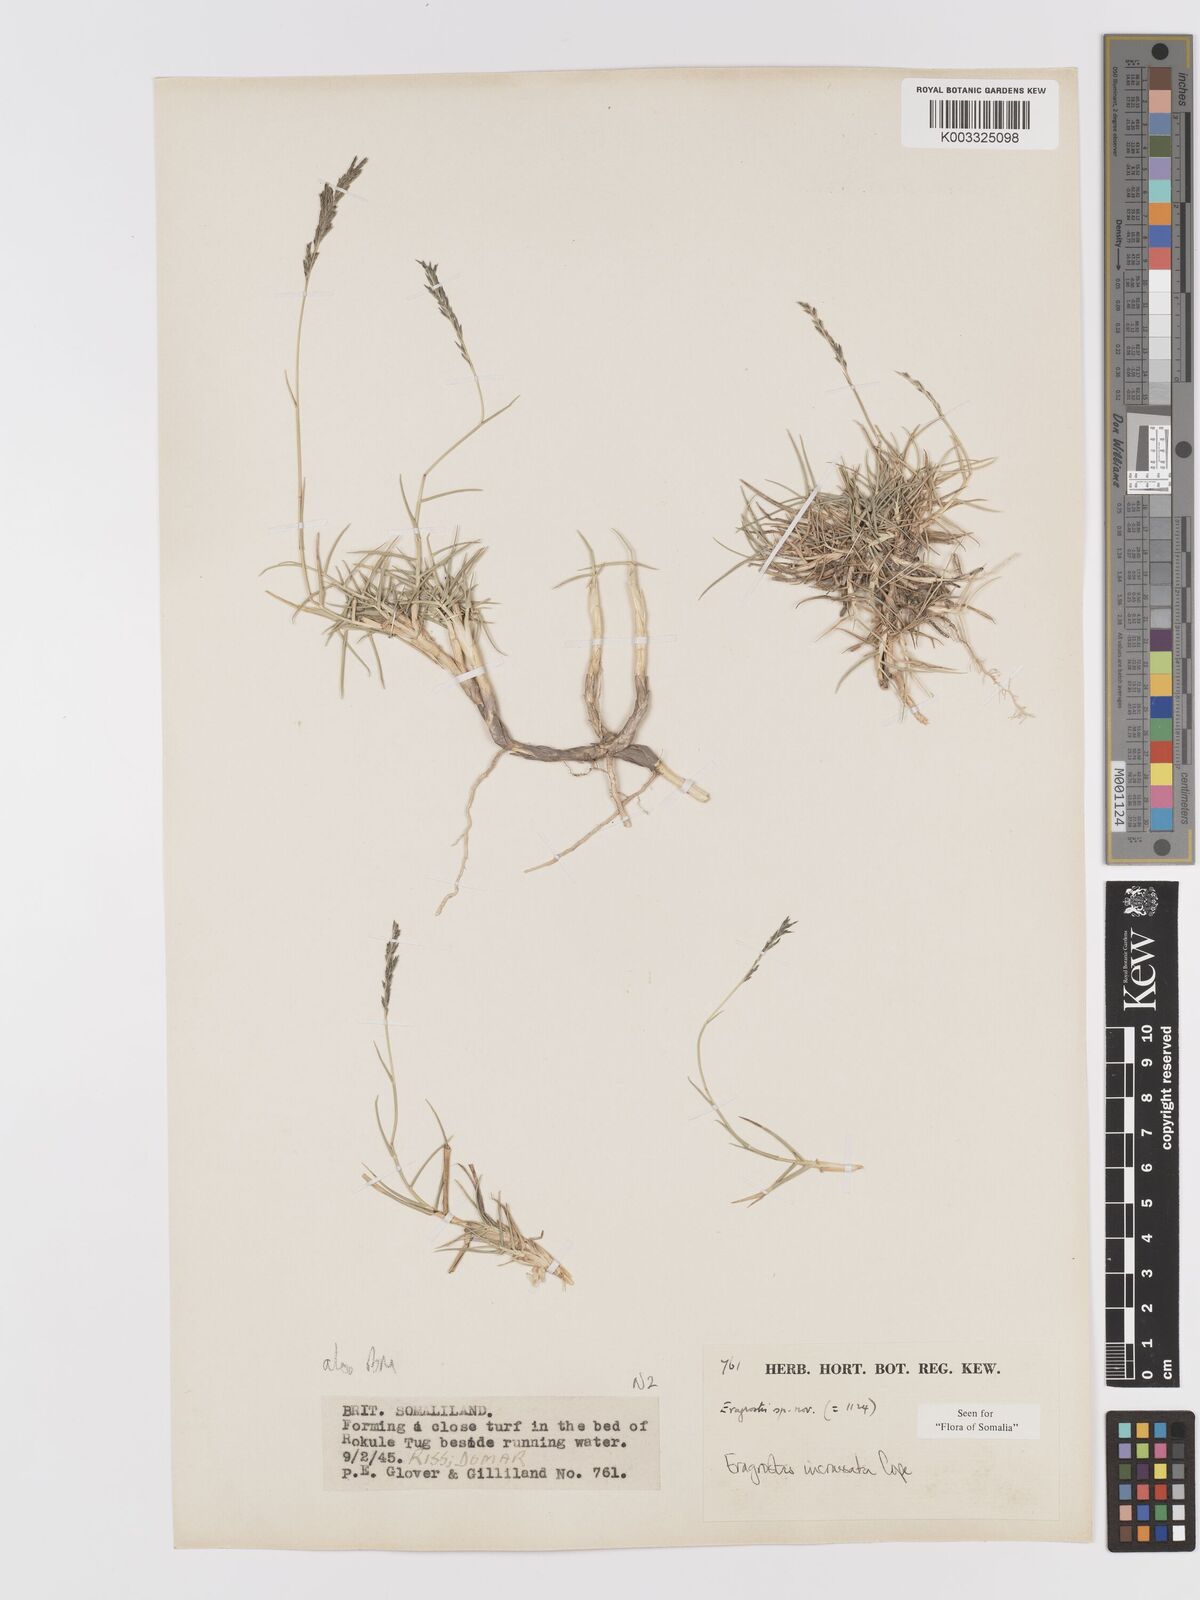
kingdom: Plantae
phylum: Tracheophyta
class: Liliopsida
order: Poales
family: Poaceae
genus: Eragrostis
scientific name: Eragrostis incrassata
